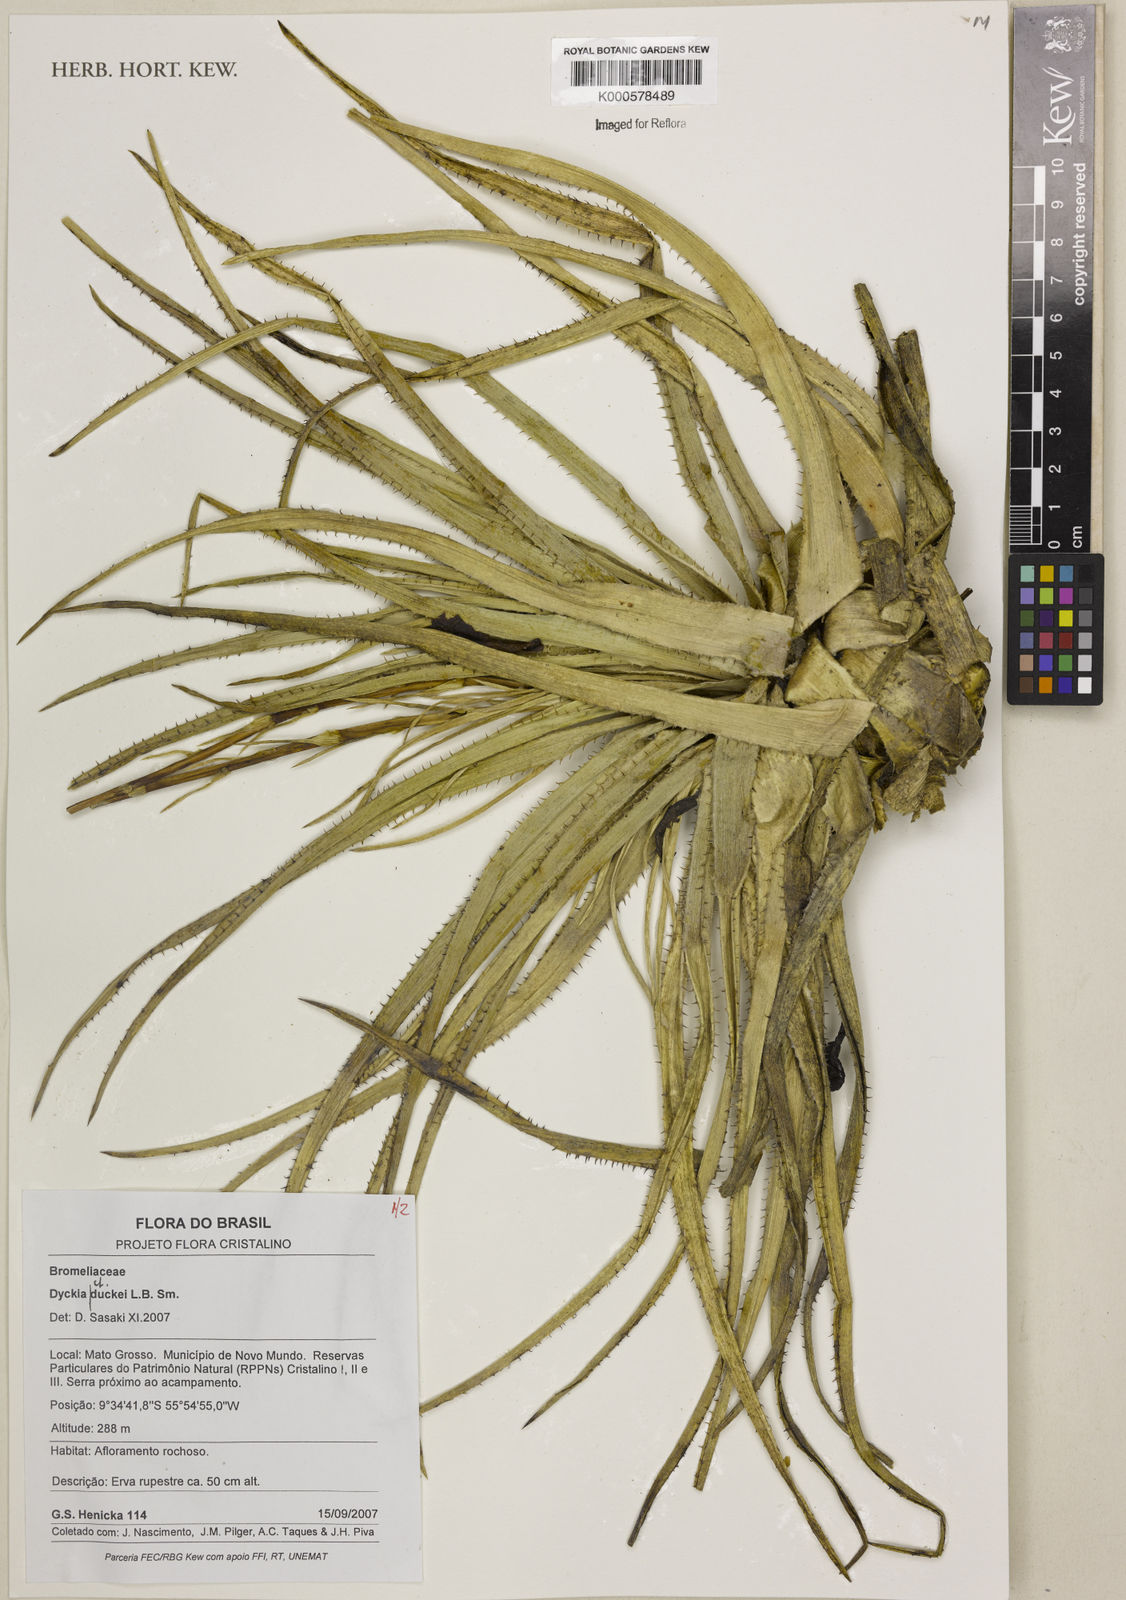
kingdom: Plantae
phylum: Tracheophyta
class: Liliopsida
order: Poales
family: Bromeliaceae
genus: Dyckia
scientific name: Dyckia duckei
